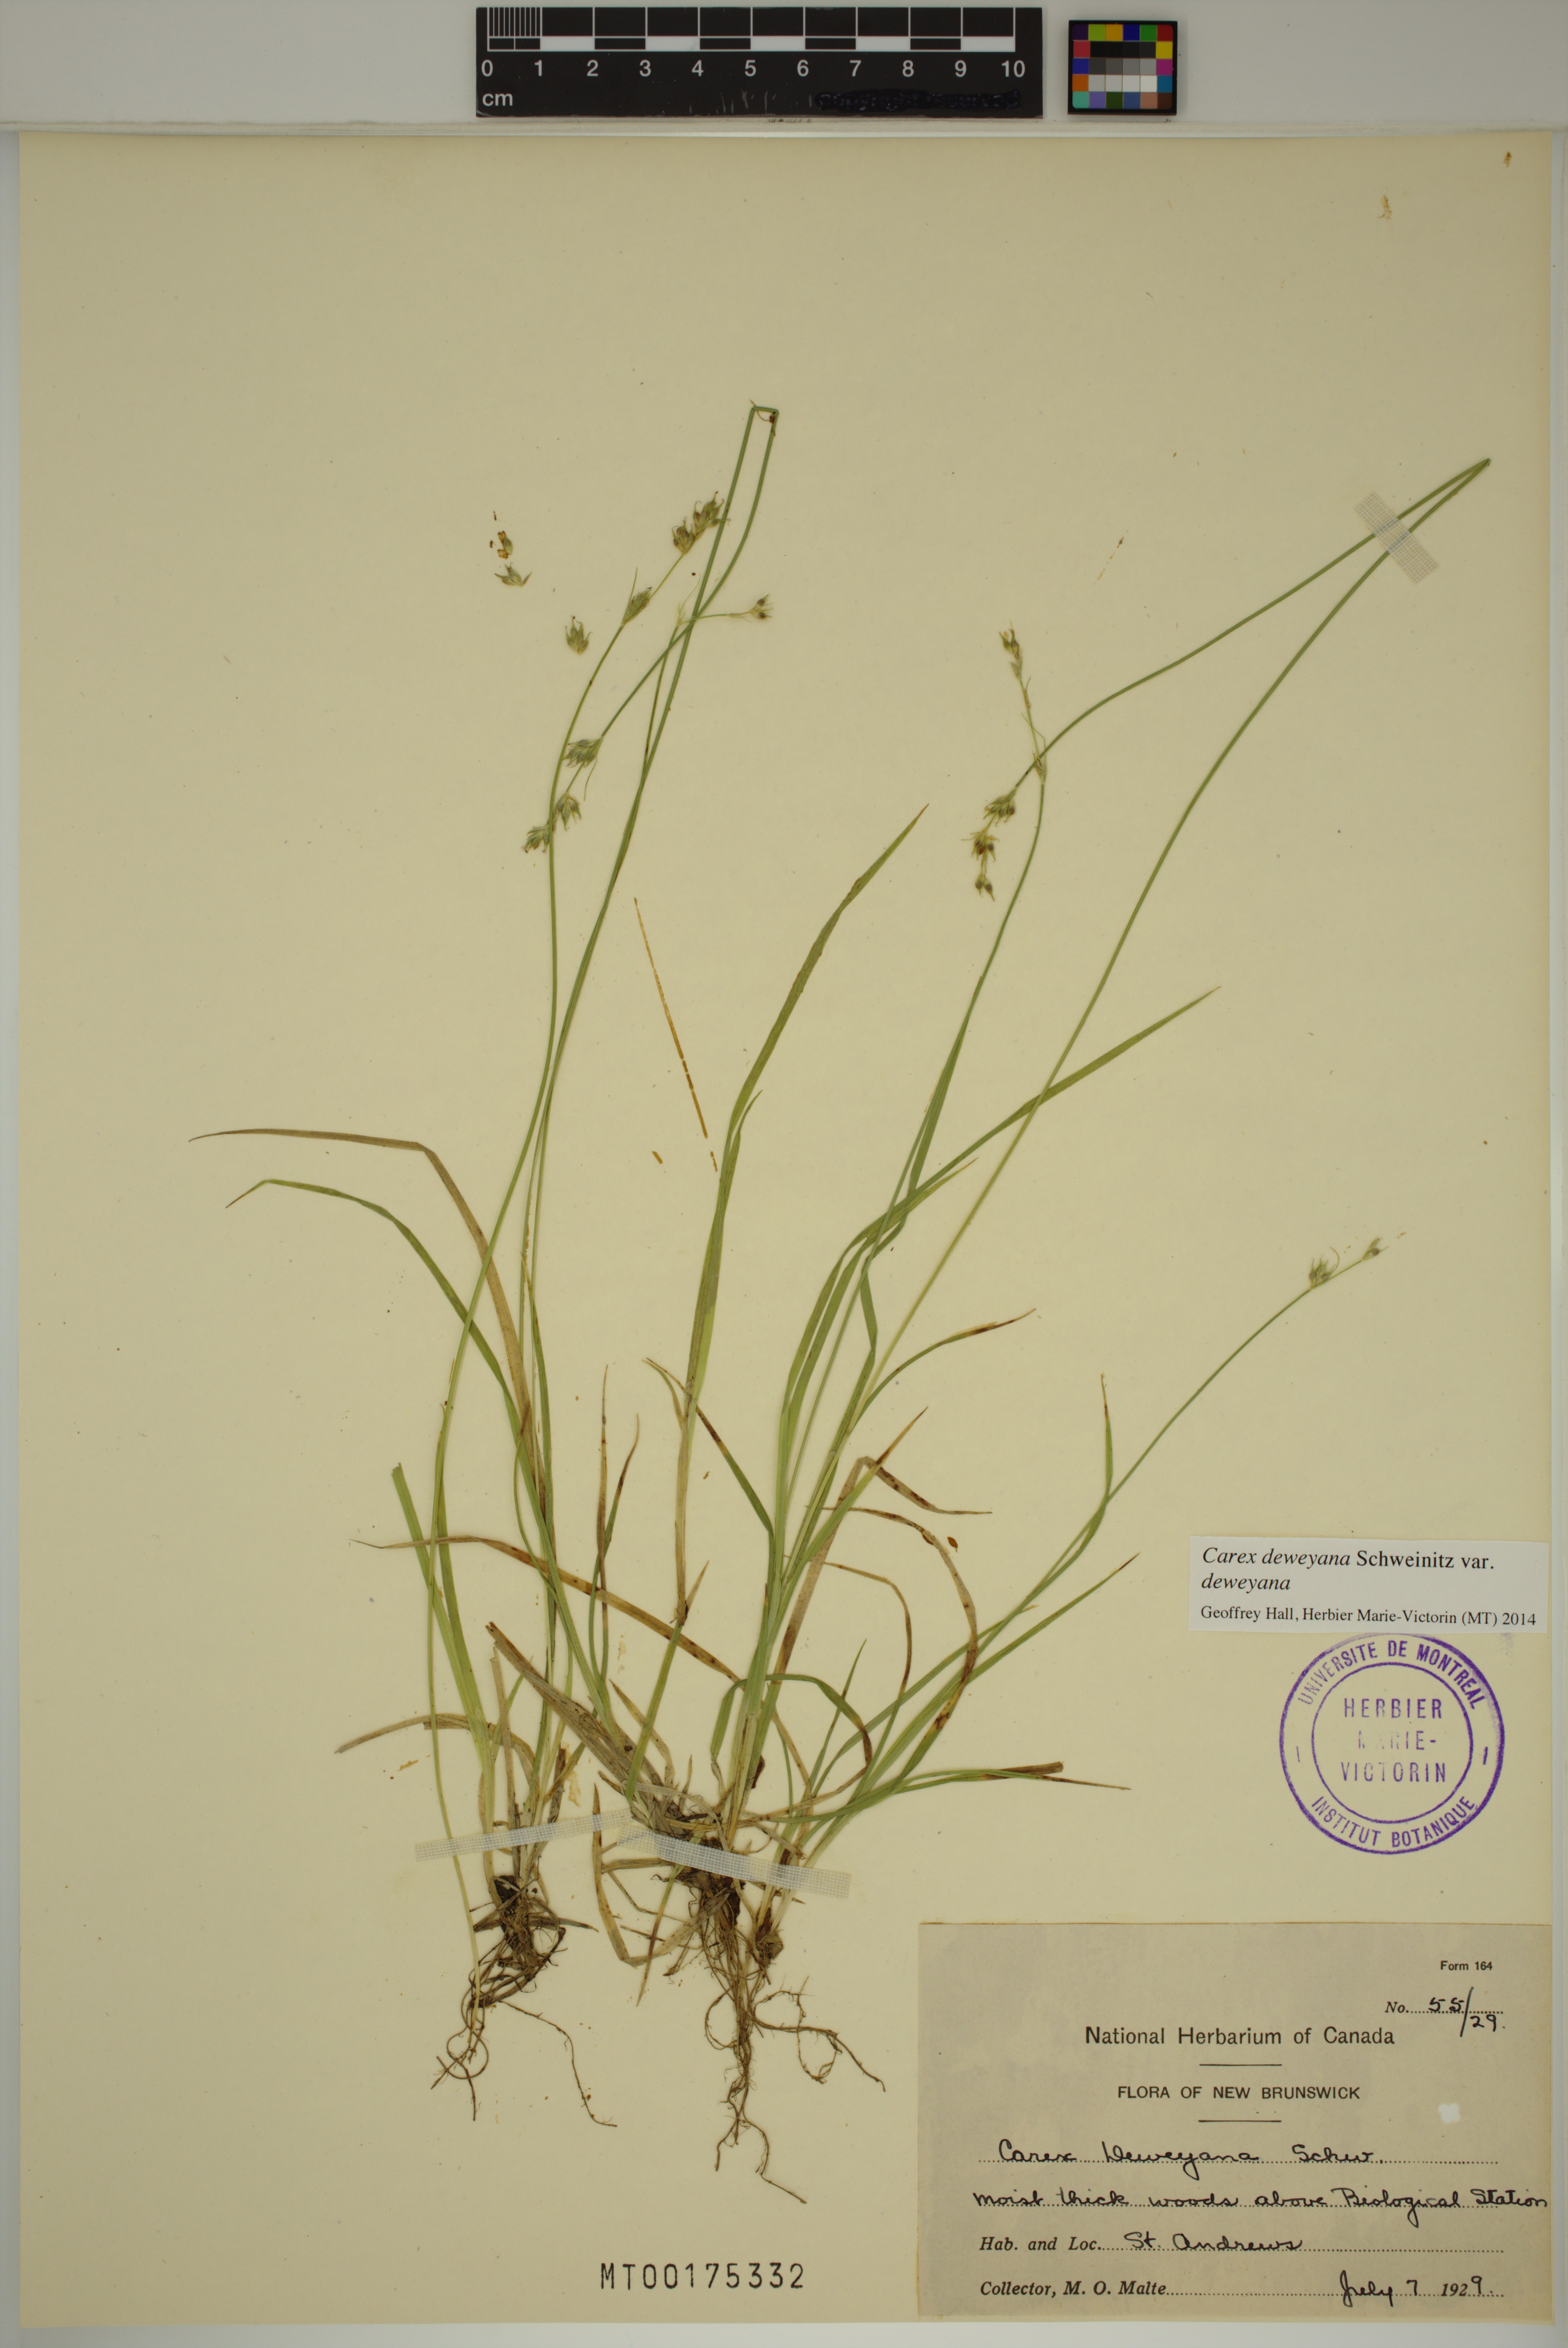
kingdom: Plantae
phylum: Tracheophyta
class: Liliopsida
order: Poales
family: Cyperaceae
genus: Carex
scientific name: Carex deweyana
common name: Dewey's sedge
